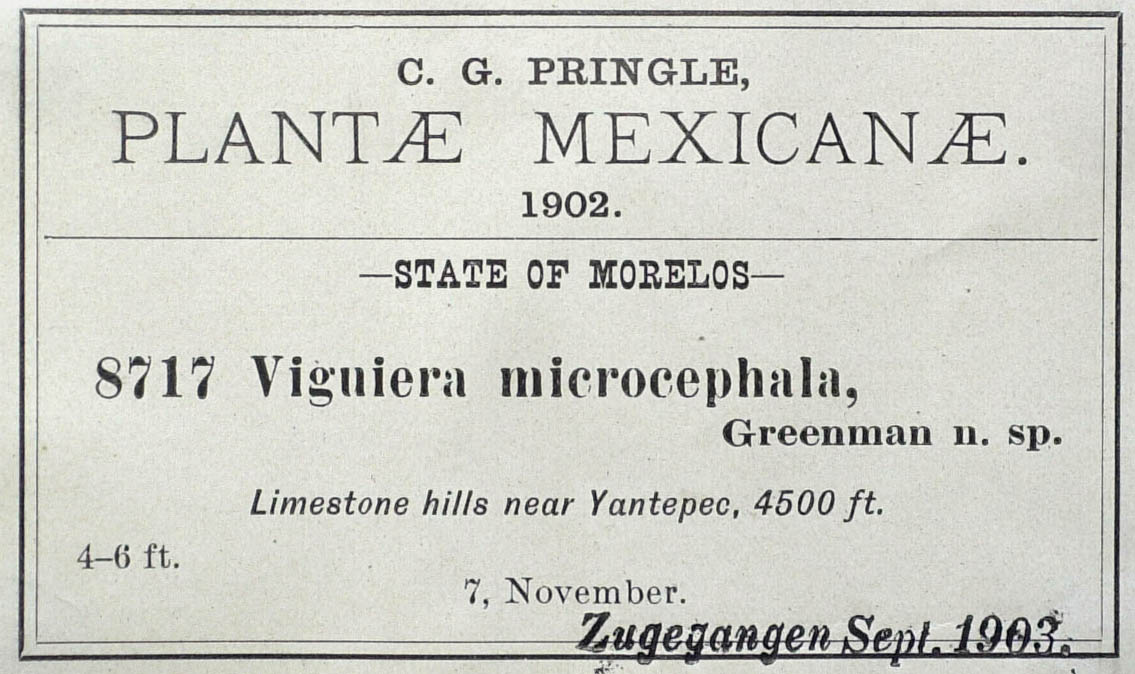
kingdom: Plantae
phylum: Tracheophyta
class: Magnoliopsida
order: Asterales
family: Asteraceae
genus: Hymenostephium
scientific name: Hymenostephium uniseriatum
